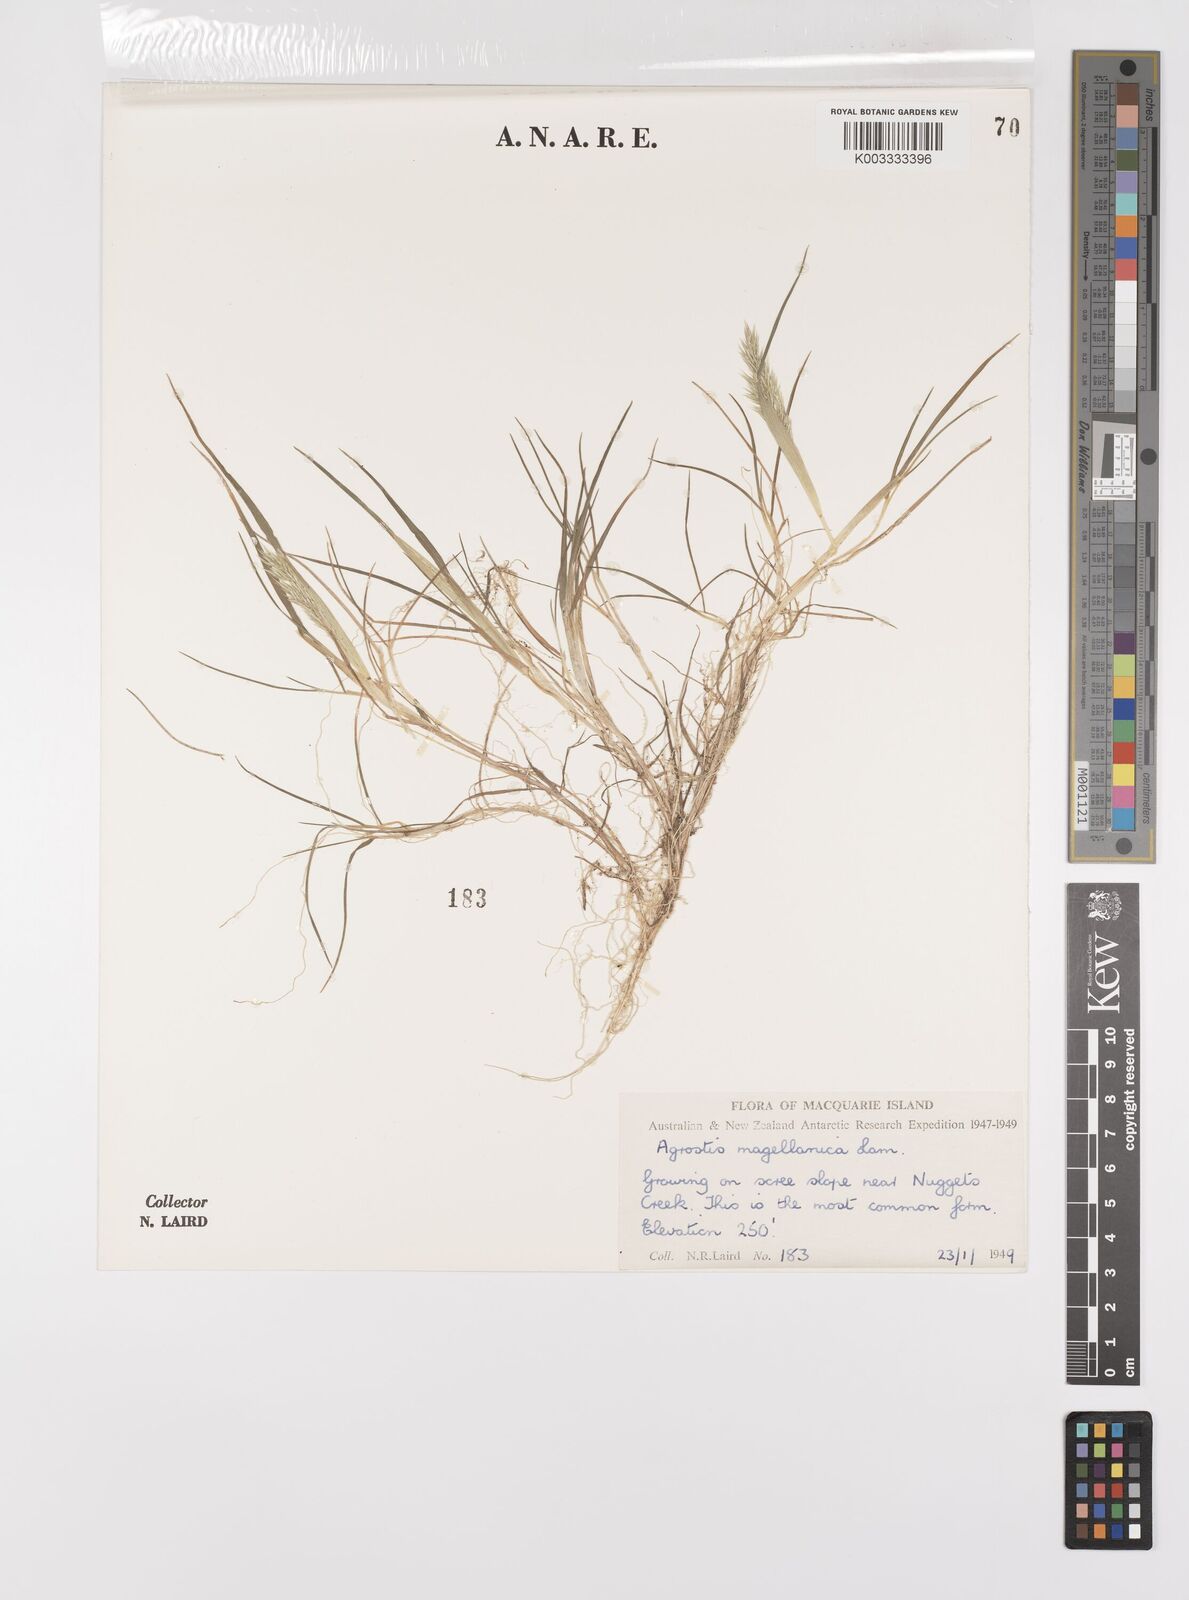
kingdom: Plantae
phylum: Tracheophyta
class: Liliopsida
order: Poales
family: Poaceae
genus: Polypogon
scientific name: Polypogon magellanicus
